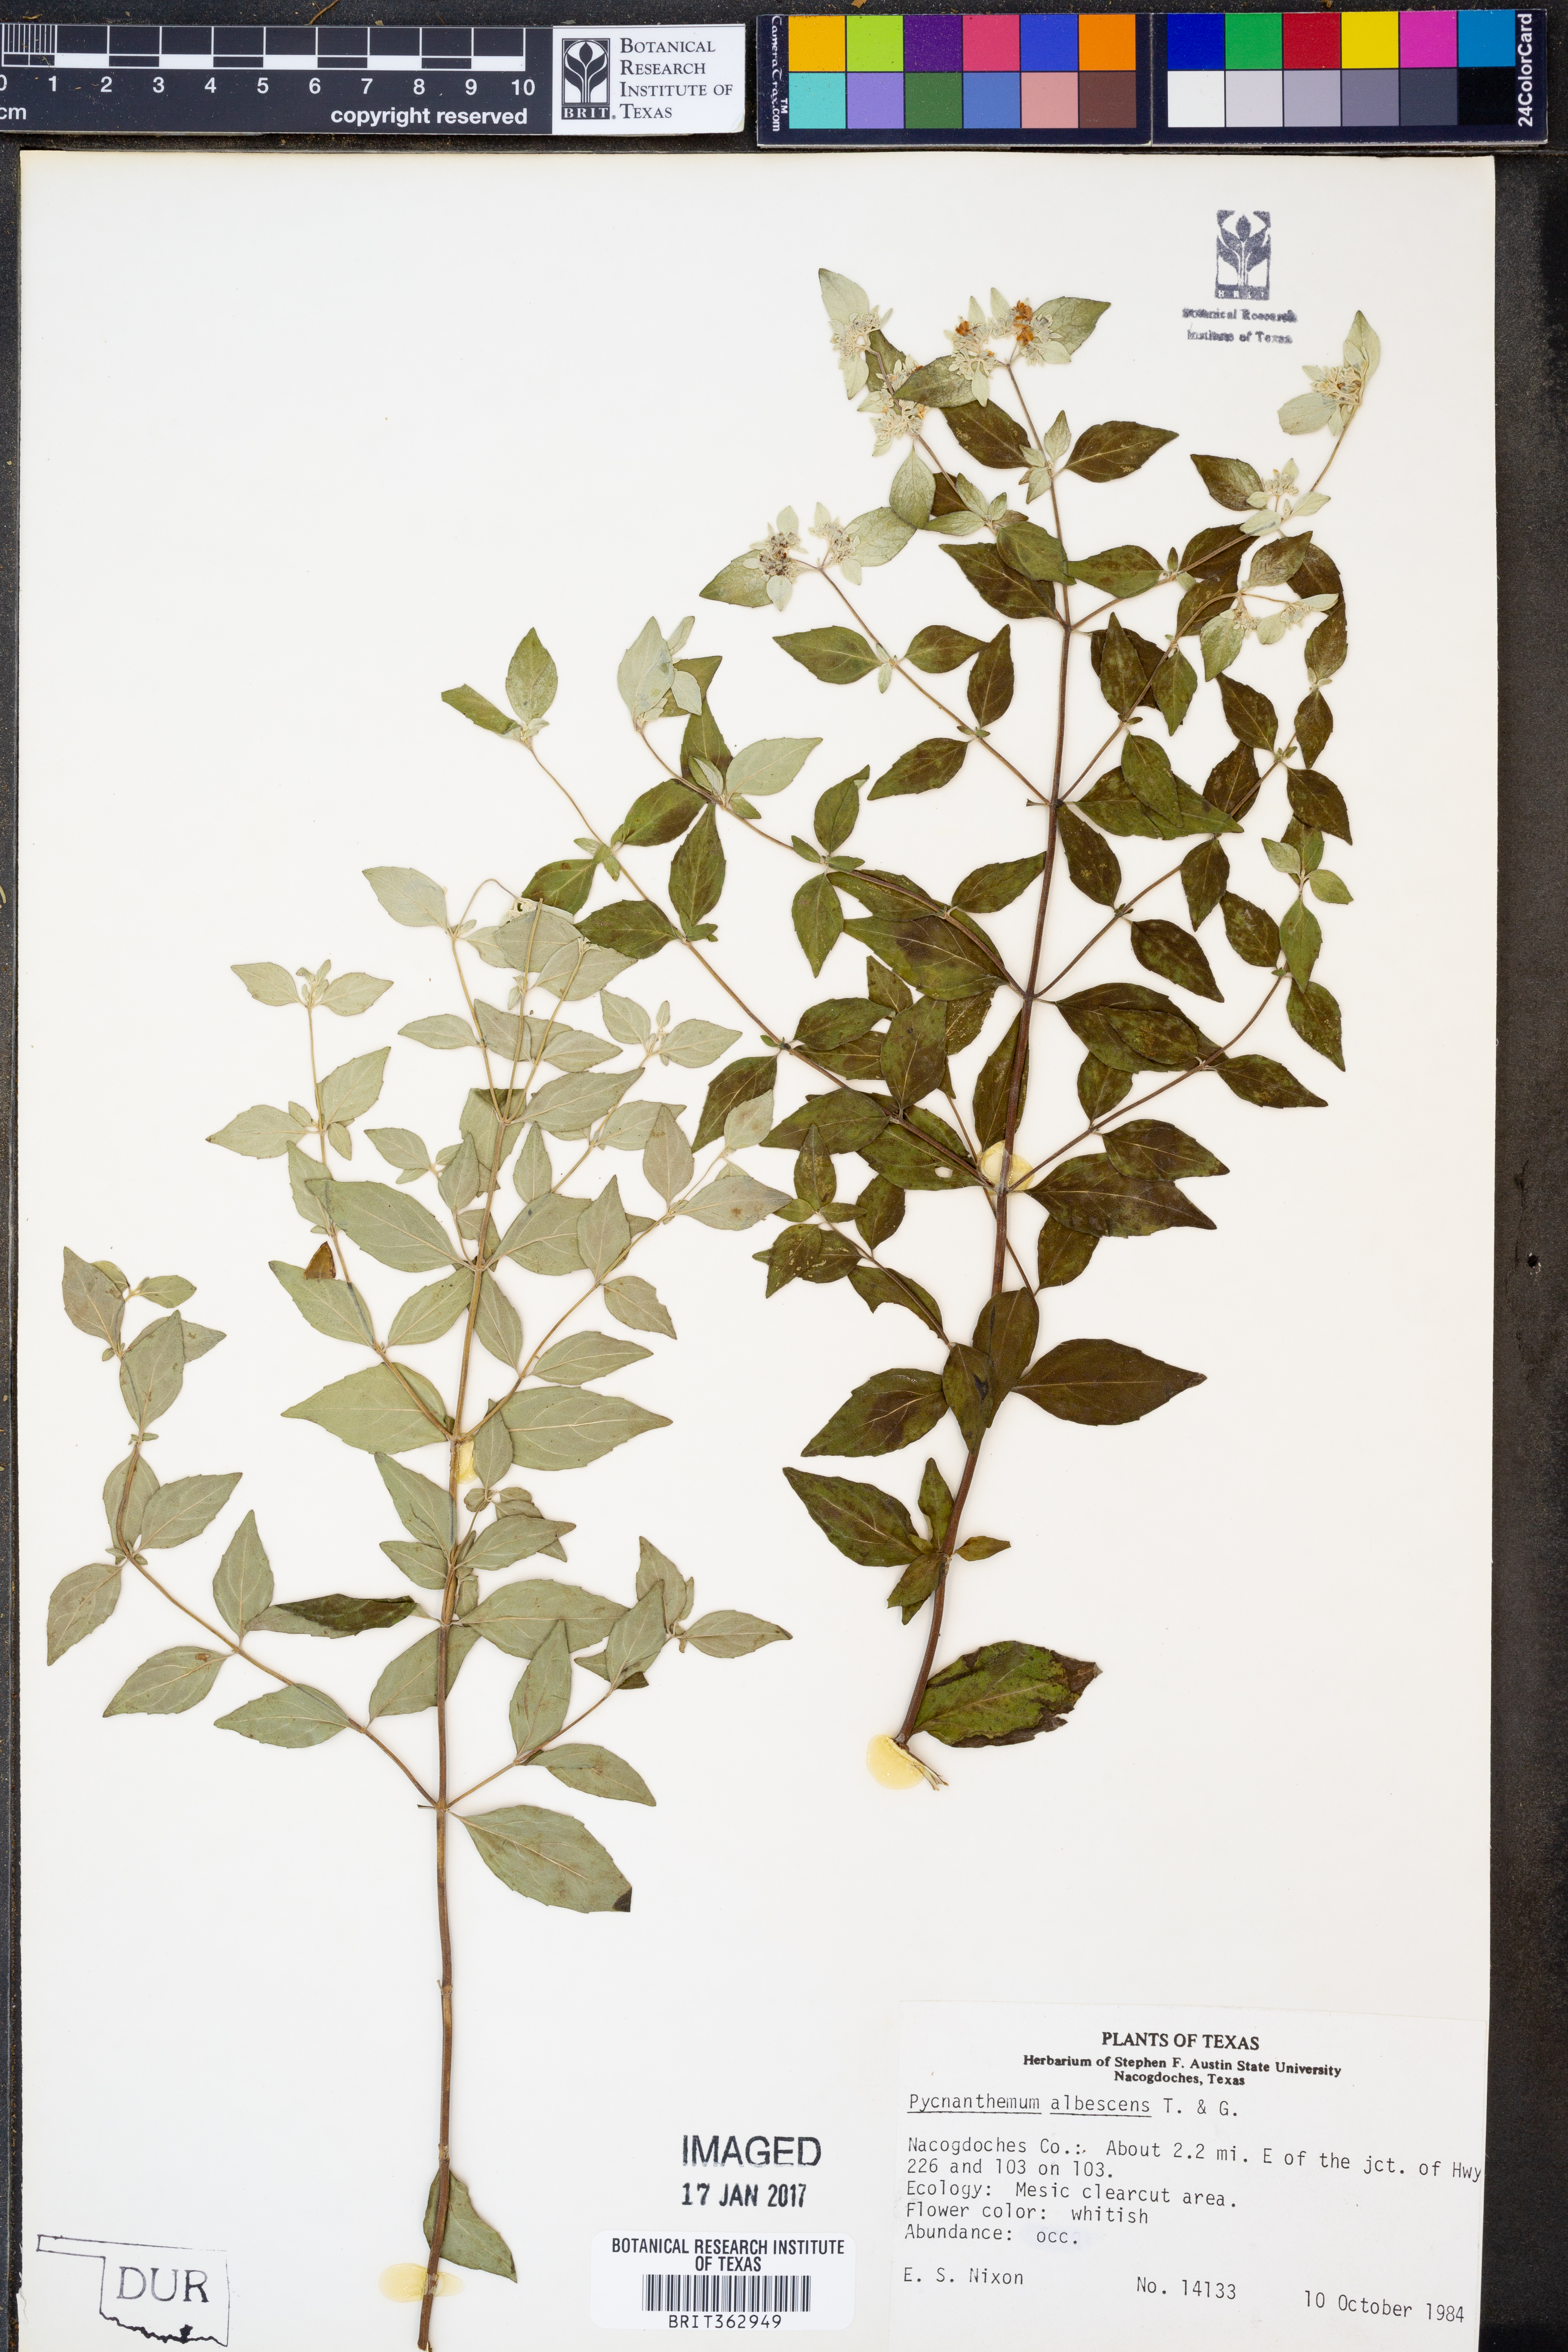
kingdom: Plantae
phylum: Tracheophyta
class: Magnoliopsida
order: Lamiales
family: Lamiaceae
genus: Pycnanthemum
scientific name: Pycnanthemum albescens
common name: White-leaf mountain-mint
